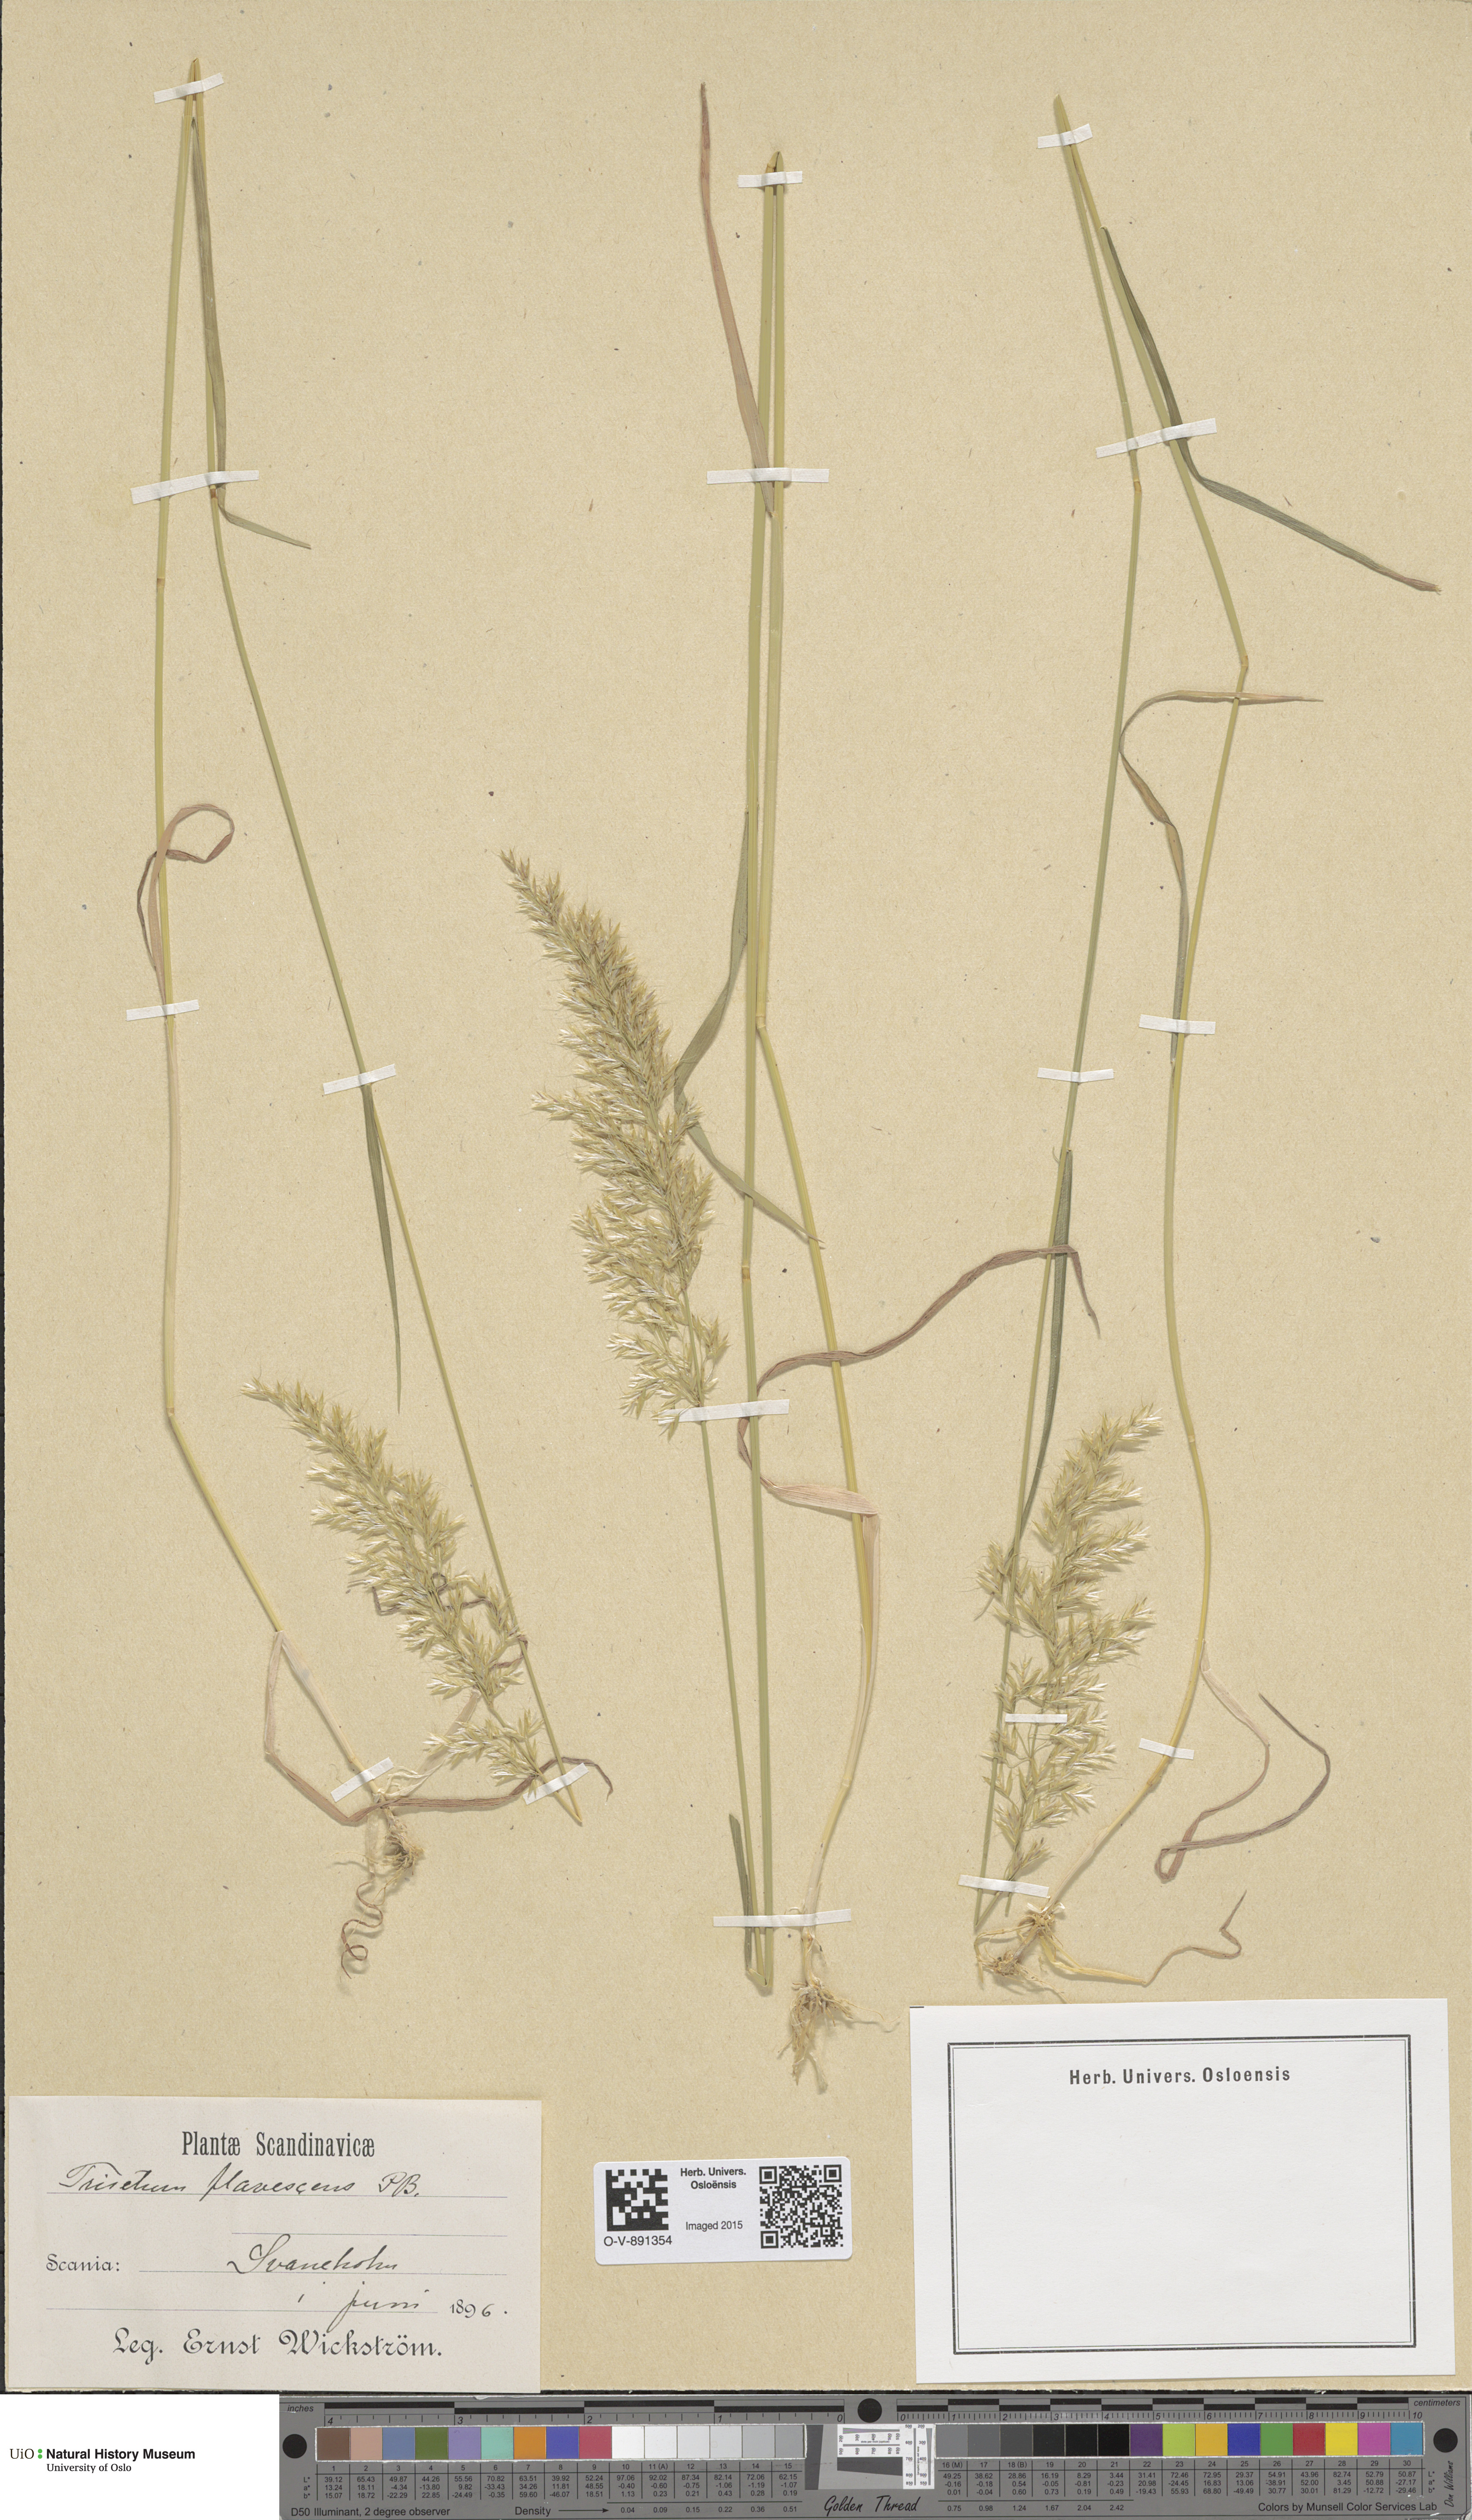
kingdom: Plantae
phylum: Tracheophyta
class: Liliopsida
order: Poales
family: Poaceae
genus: Trisetum
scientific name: Trisetum flavescens
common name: Yellow oat-grass
